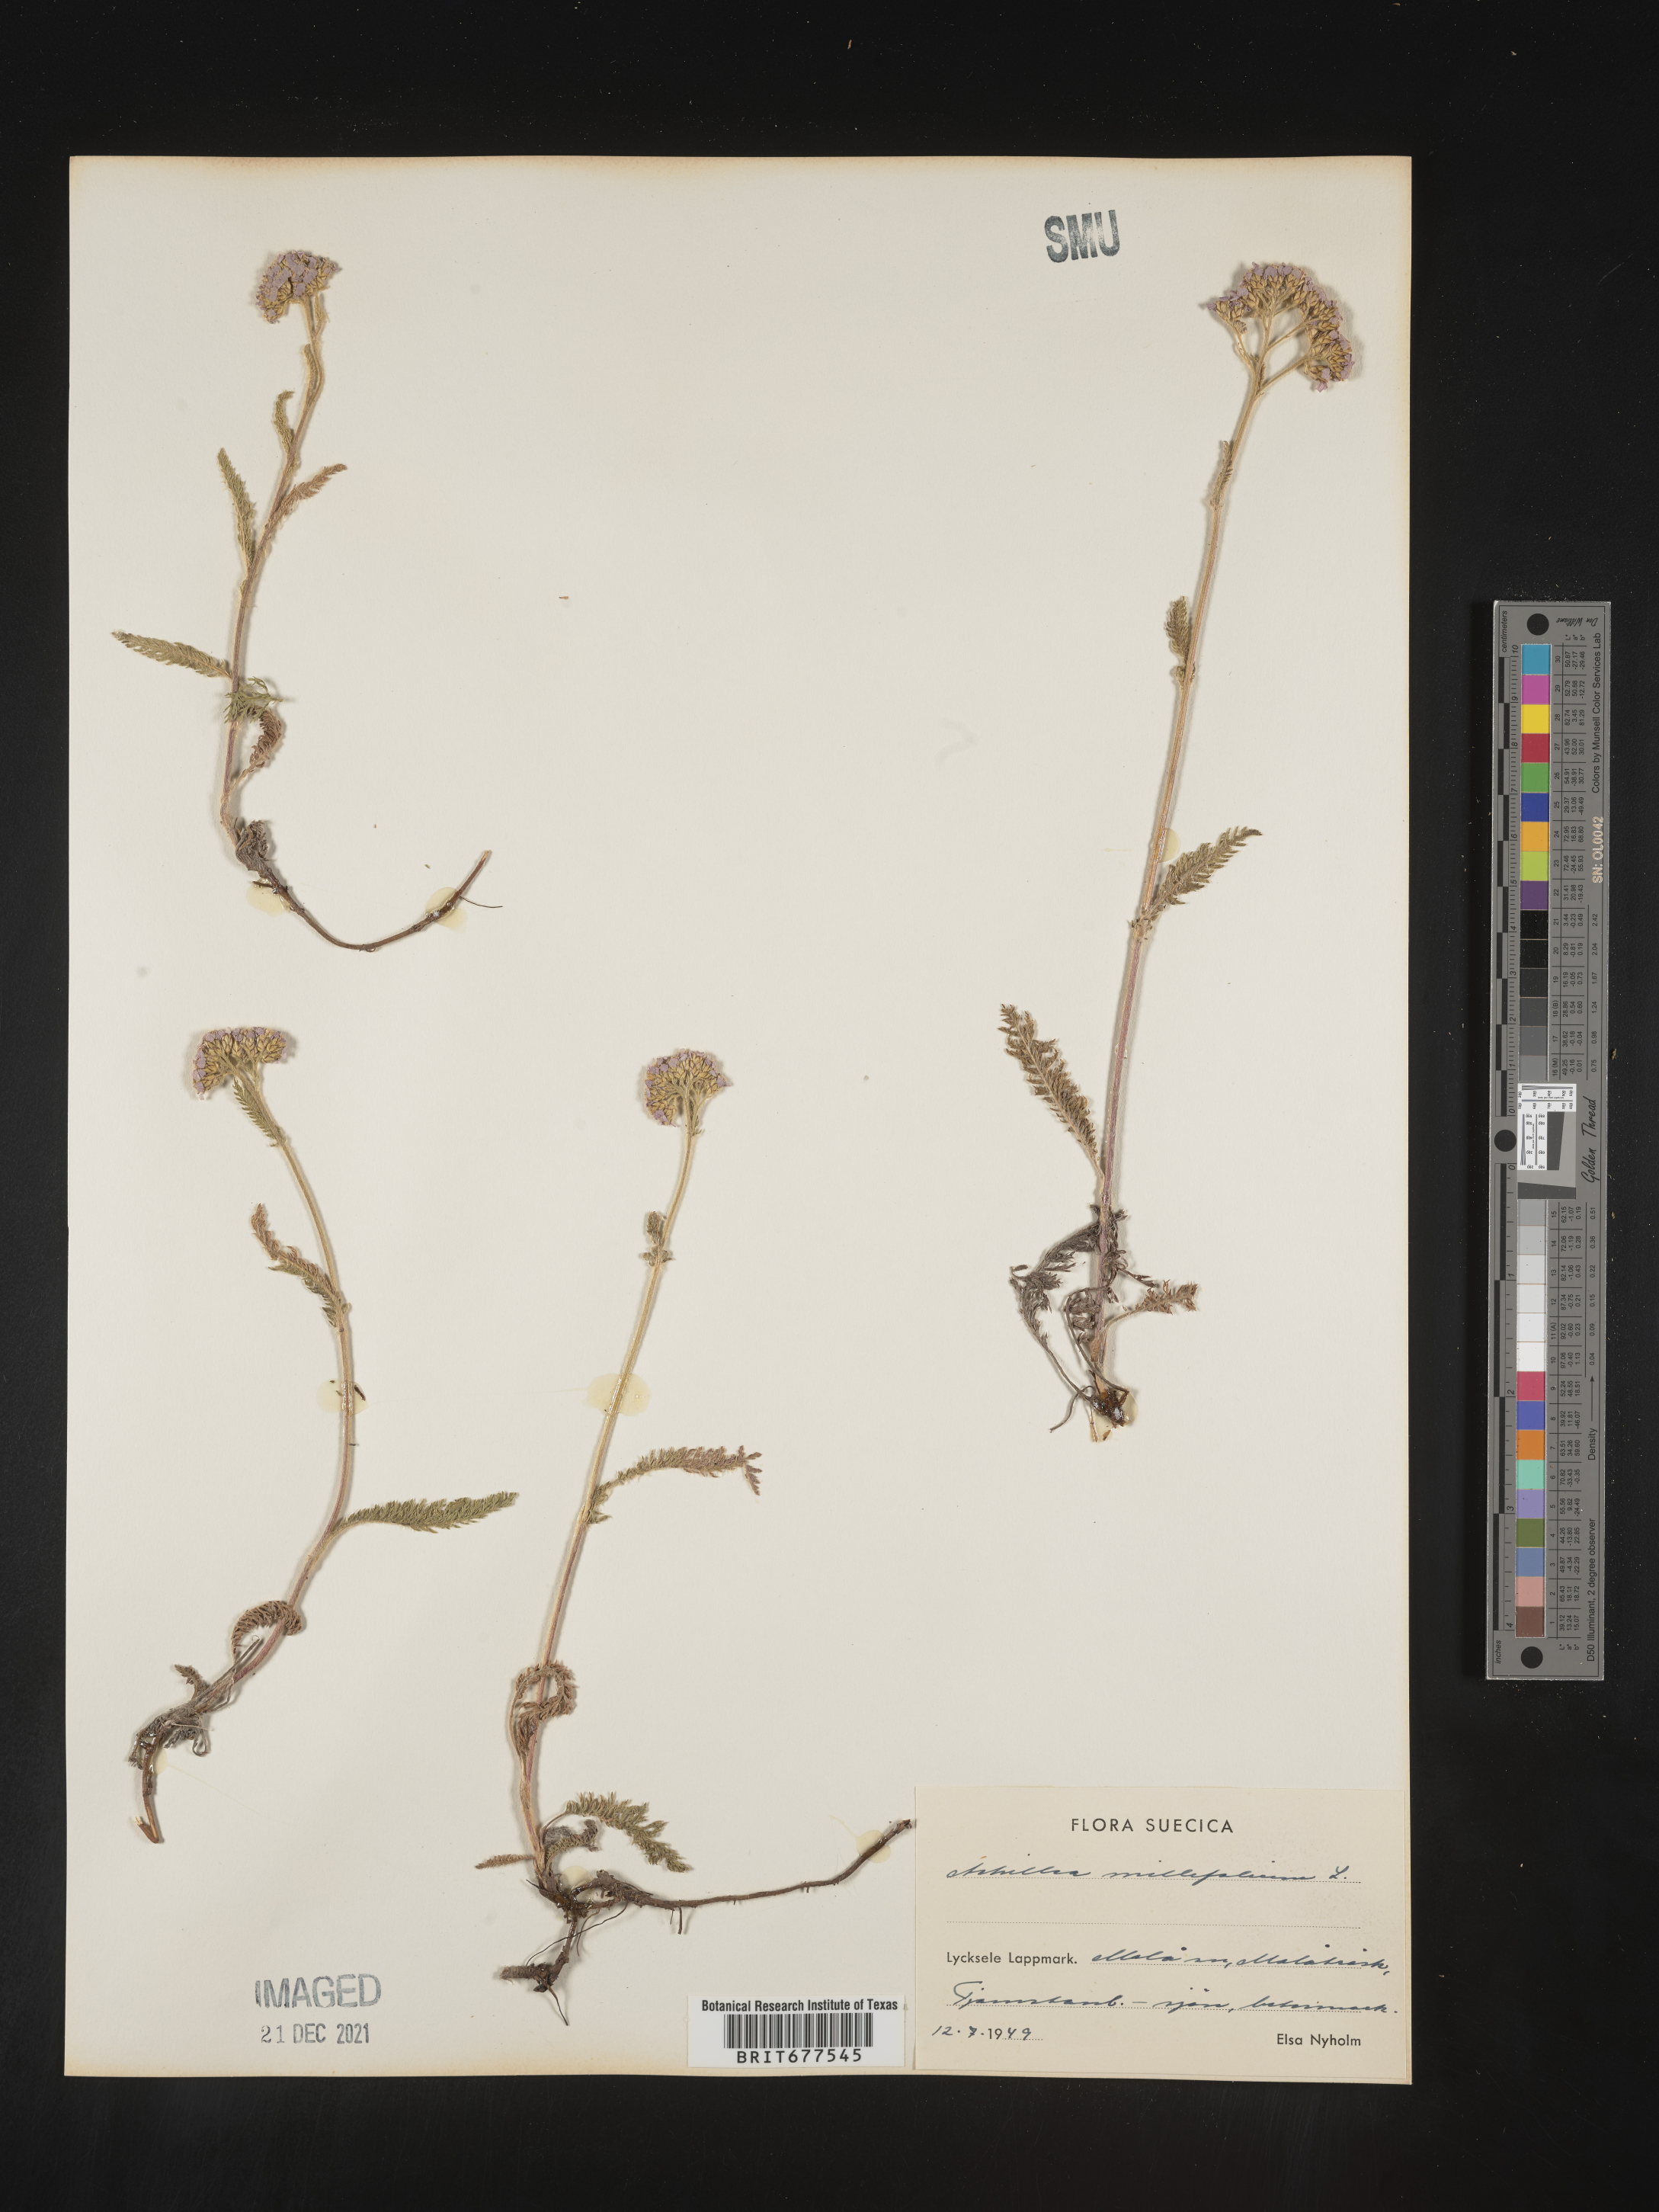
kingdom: Plantae
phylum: Tracheophyta
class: Magnoliopsida
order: Asterales
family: Asteraceae
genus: Achillea
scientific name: Achillea millefolium
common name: Yarrow
